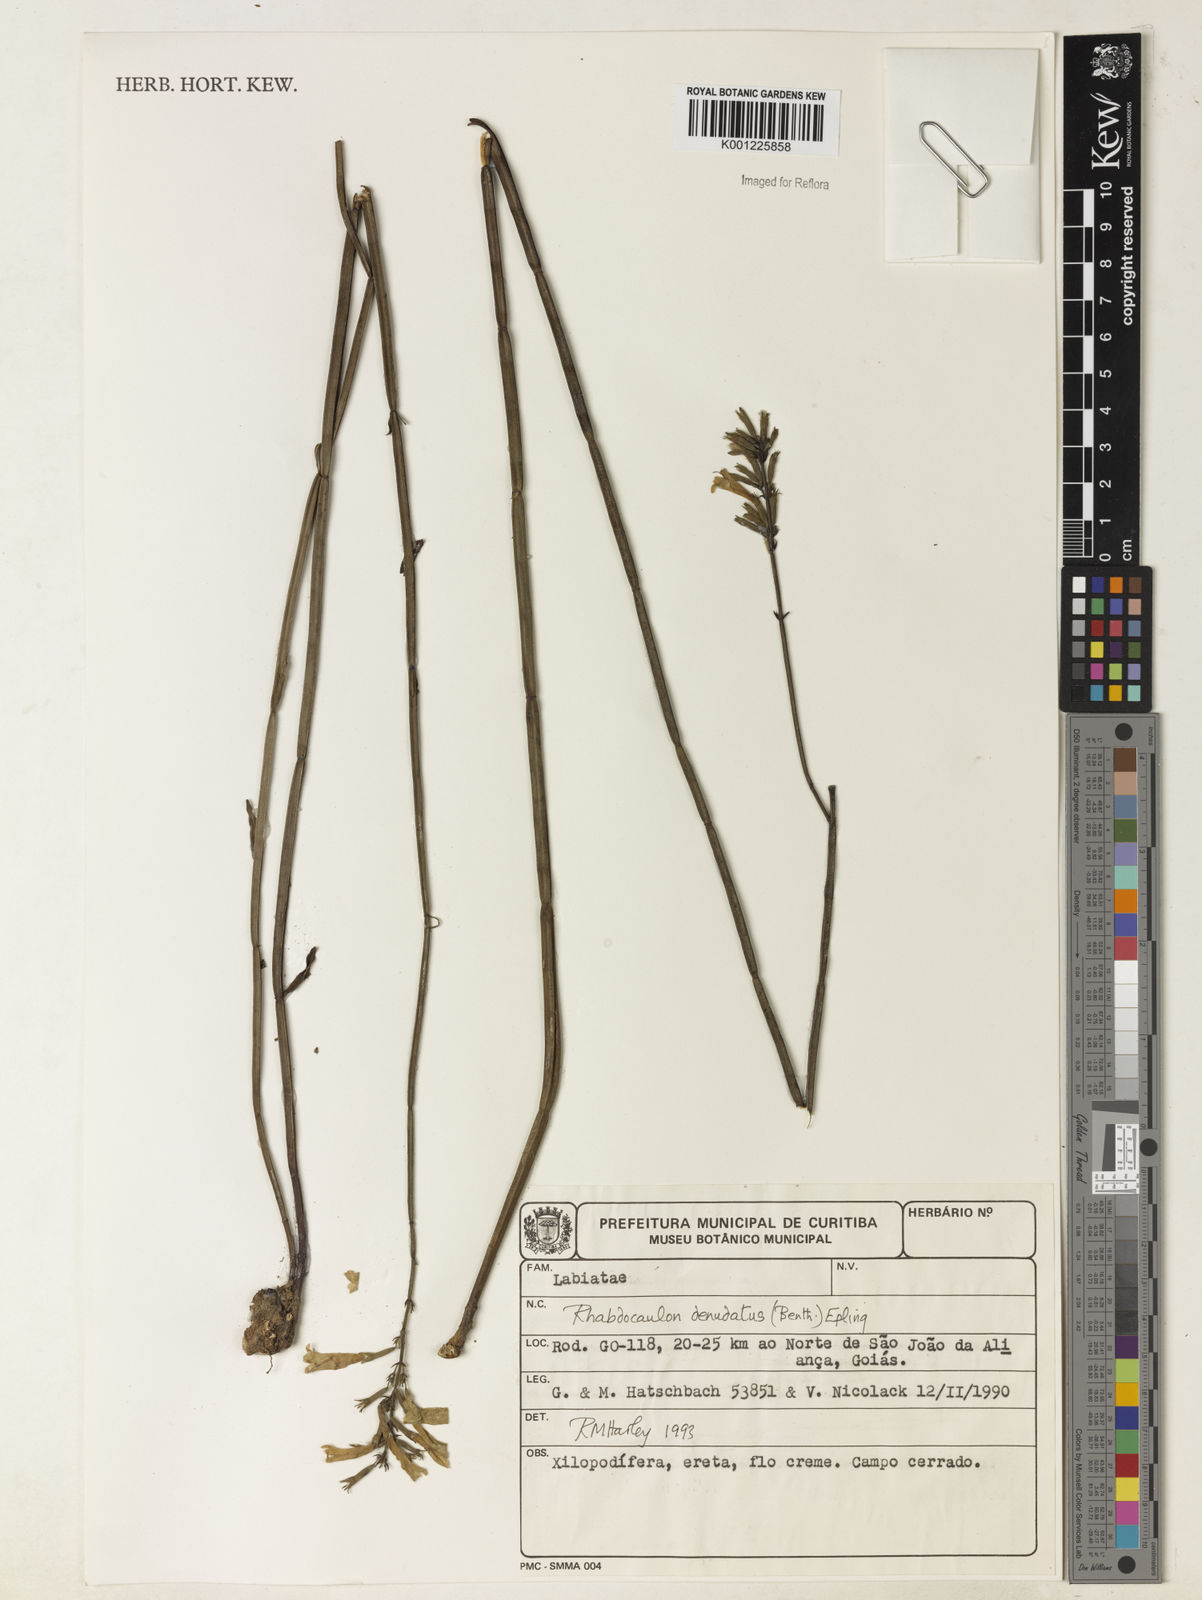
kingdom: Plantae
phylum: Tracheophyta
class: Magnoliopsida
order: Lamiales
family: Lamiaceae
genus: Rhabdocaulon
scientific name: Rhabdocaulon denudatum
